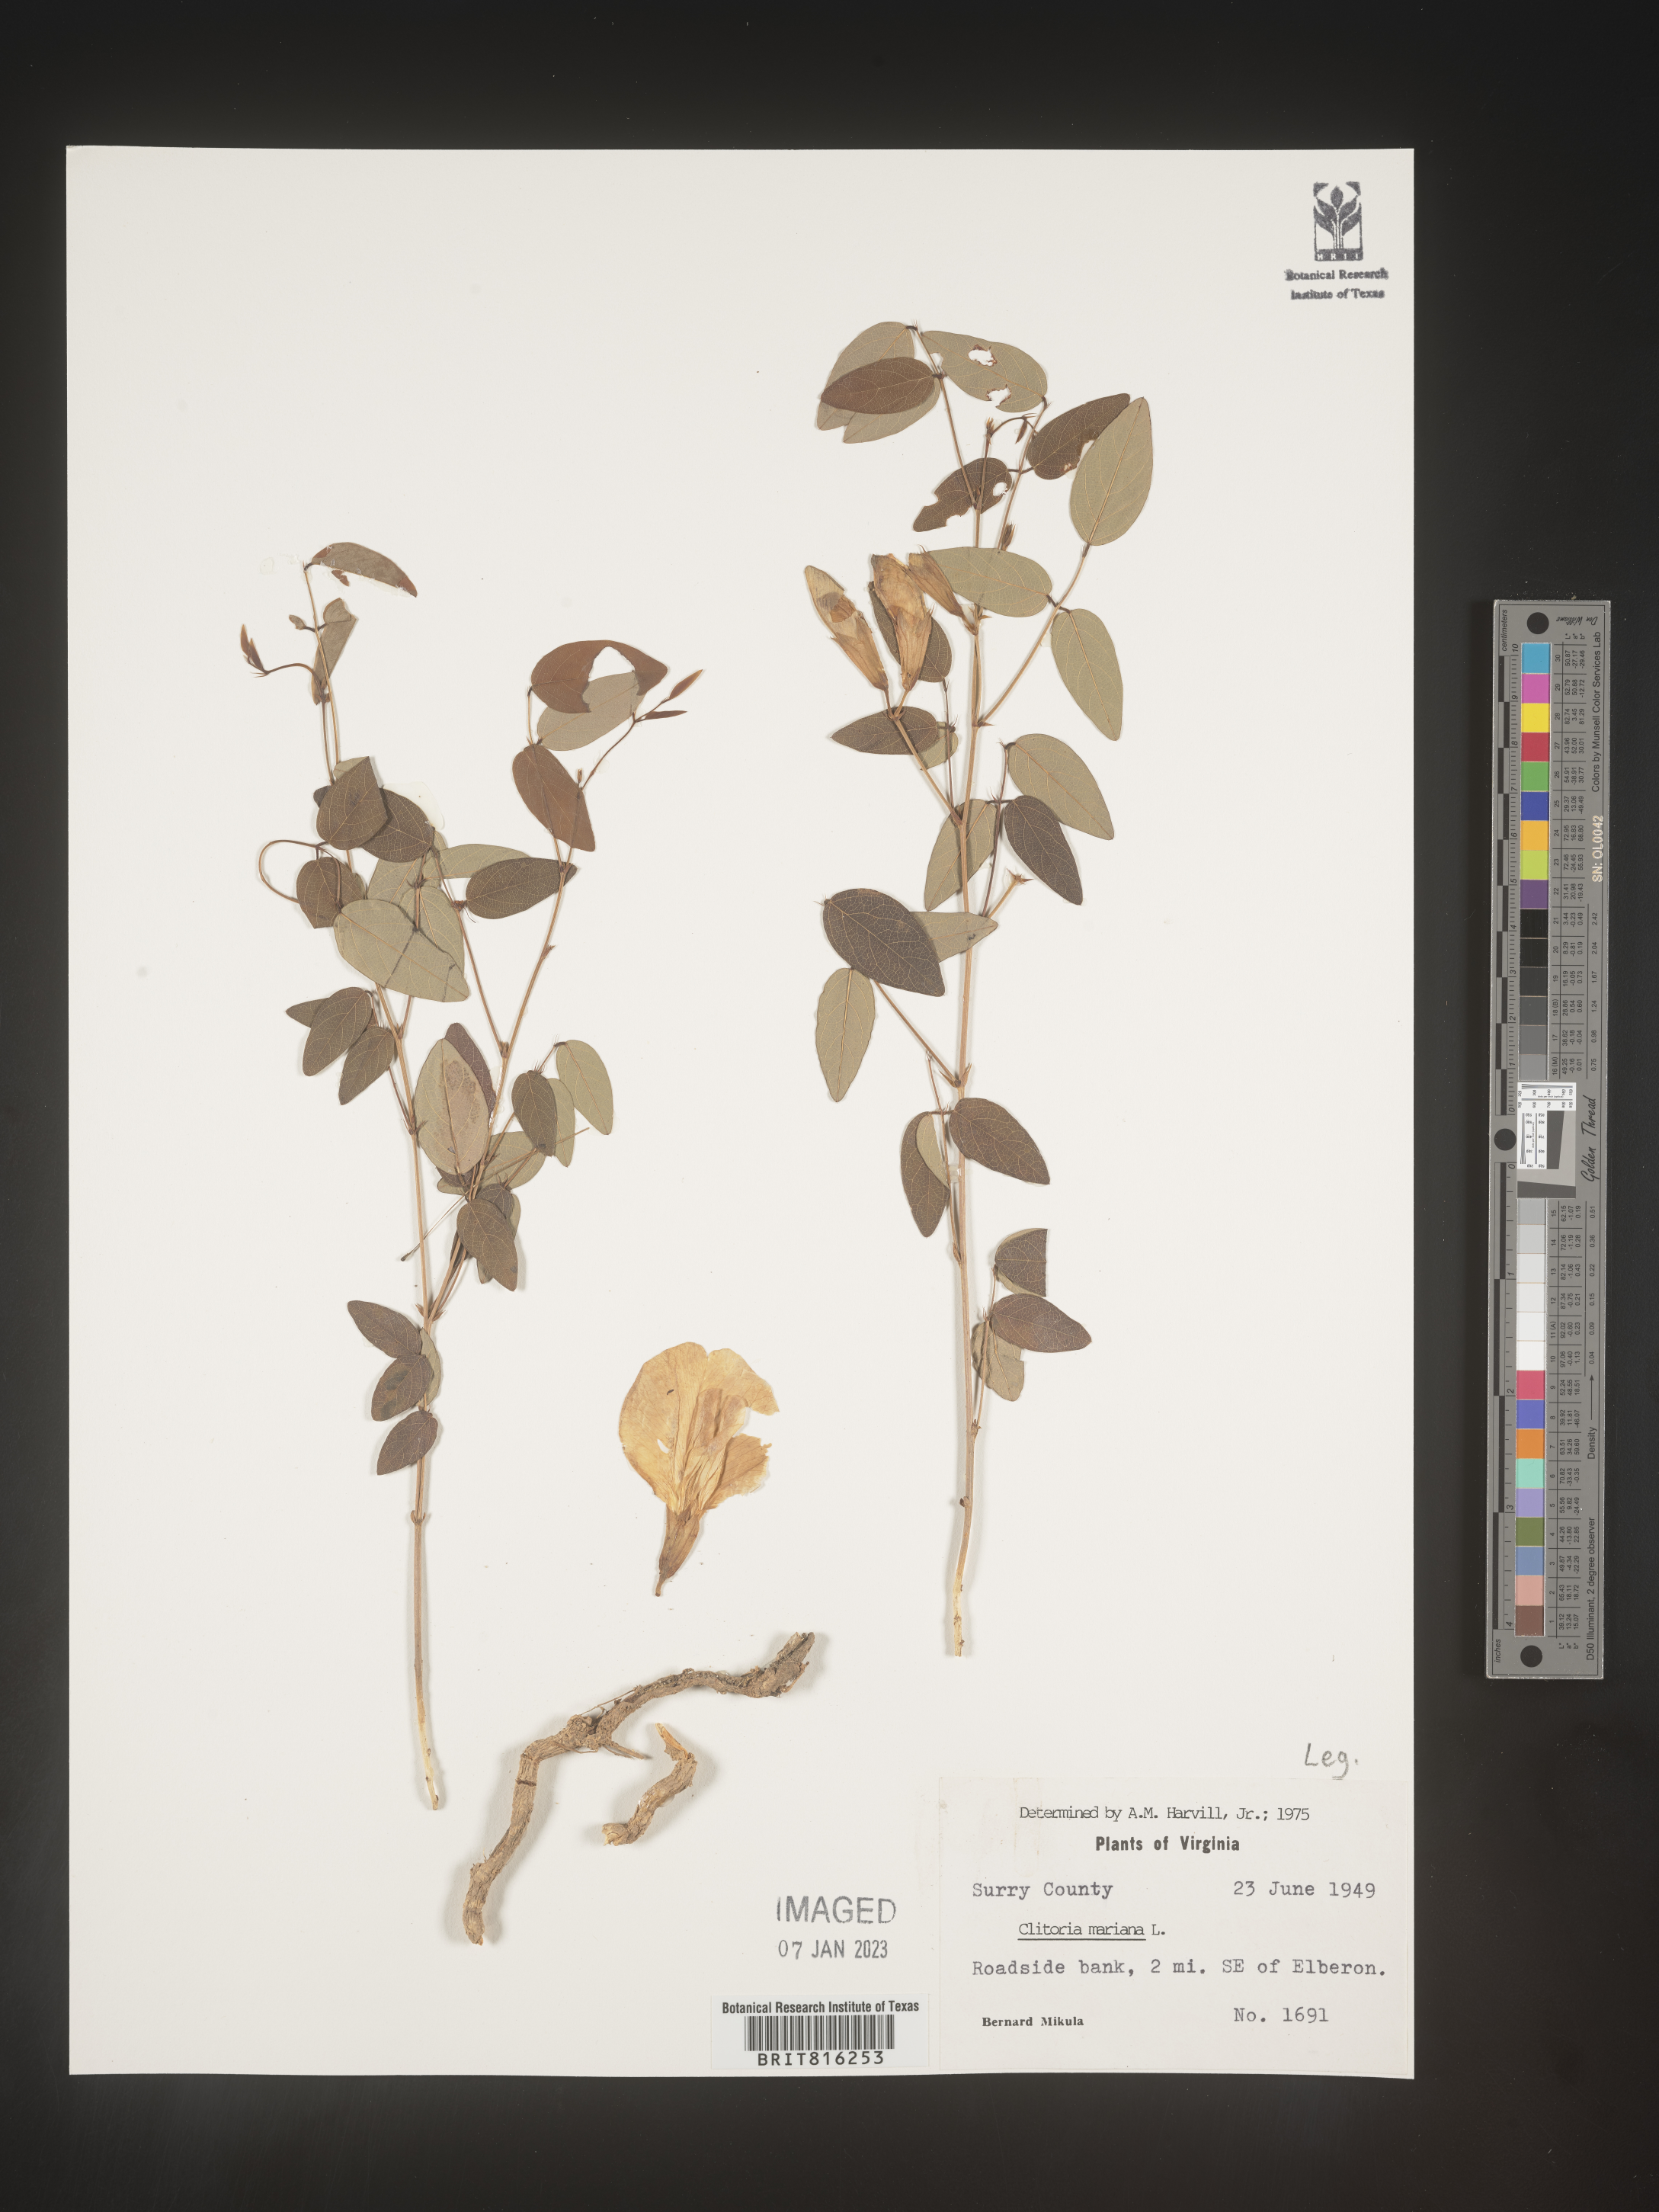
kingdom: Plantae
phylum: Tracheophyta
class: Magnoliopsida
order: Fabales
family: Fabaceae
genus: Clitoria
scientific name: Clitoria mariana
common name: Butterfly-pea
